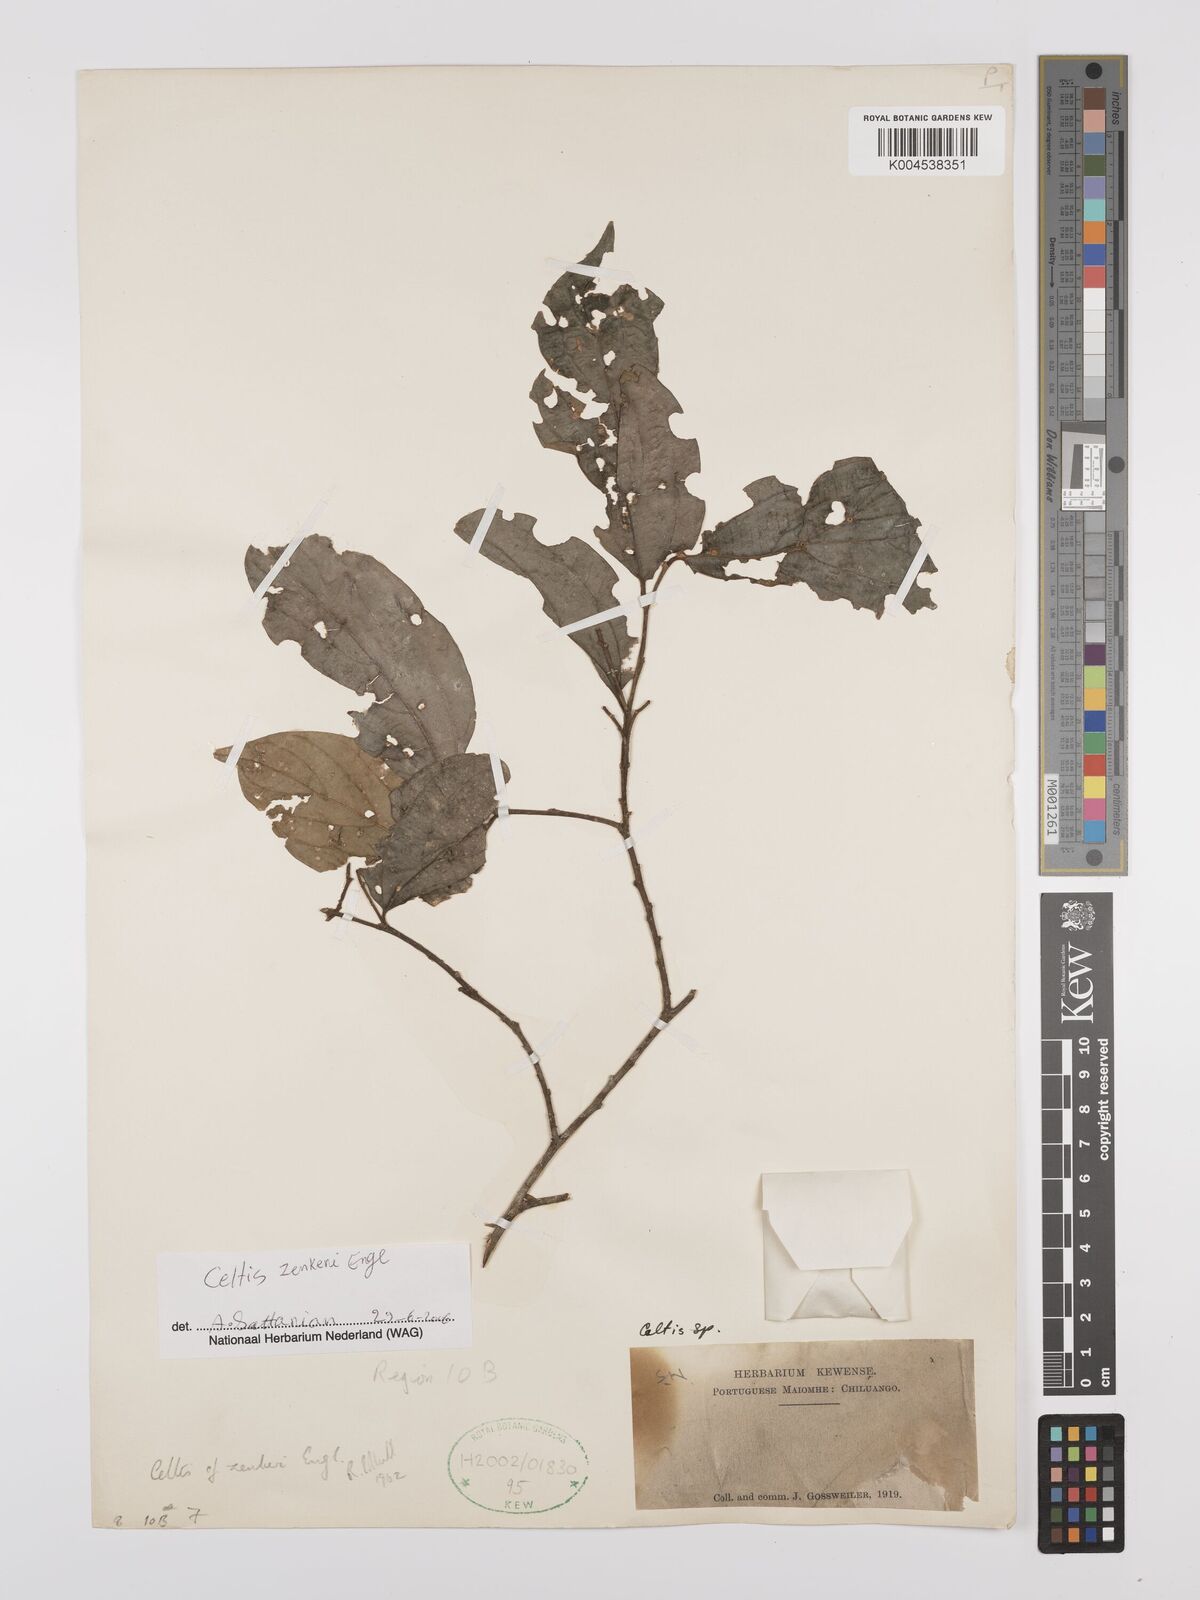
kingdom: Plantae
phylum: Tracheophyta
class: Magnoliopsida
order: Rosales
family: Cannabaceae
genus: Celtis
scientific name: Celtis zenkeri
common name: African celtis
